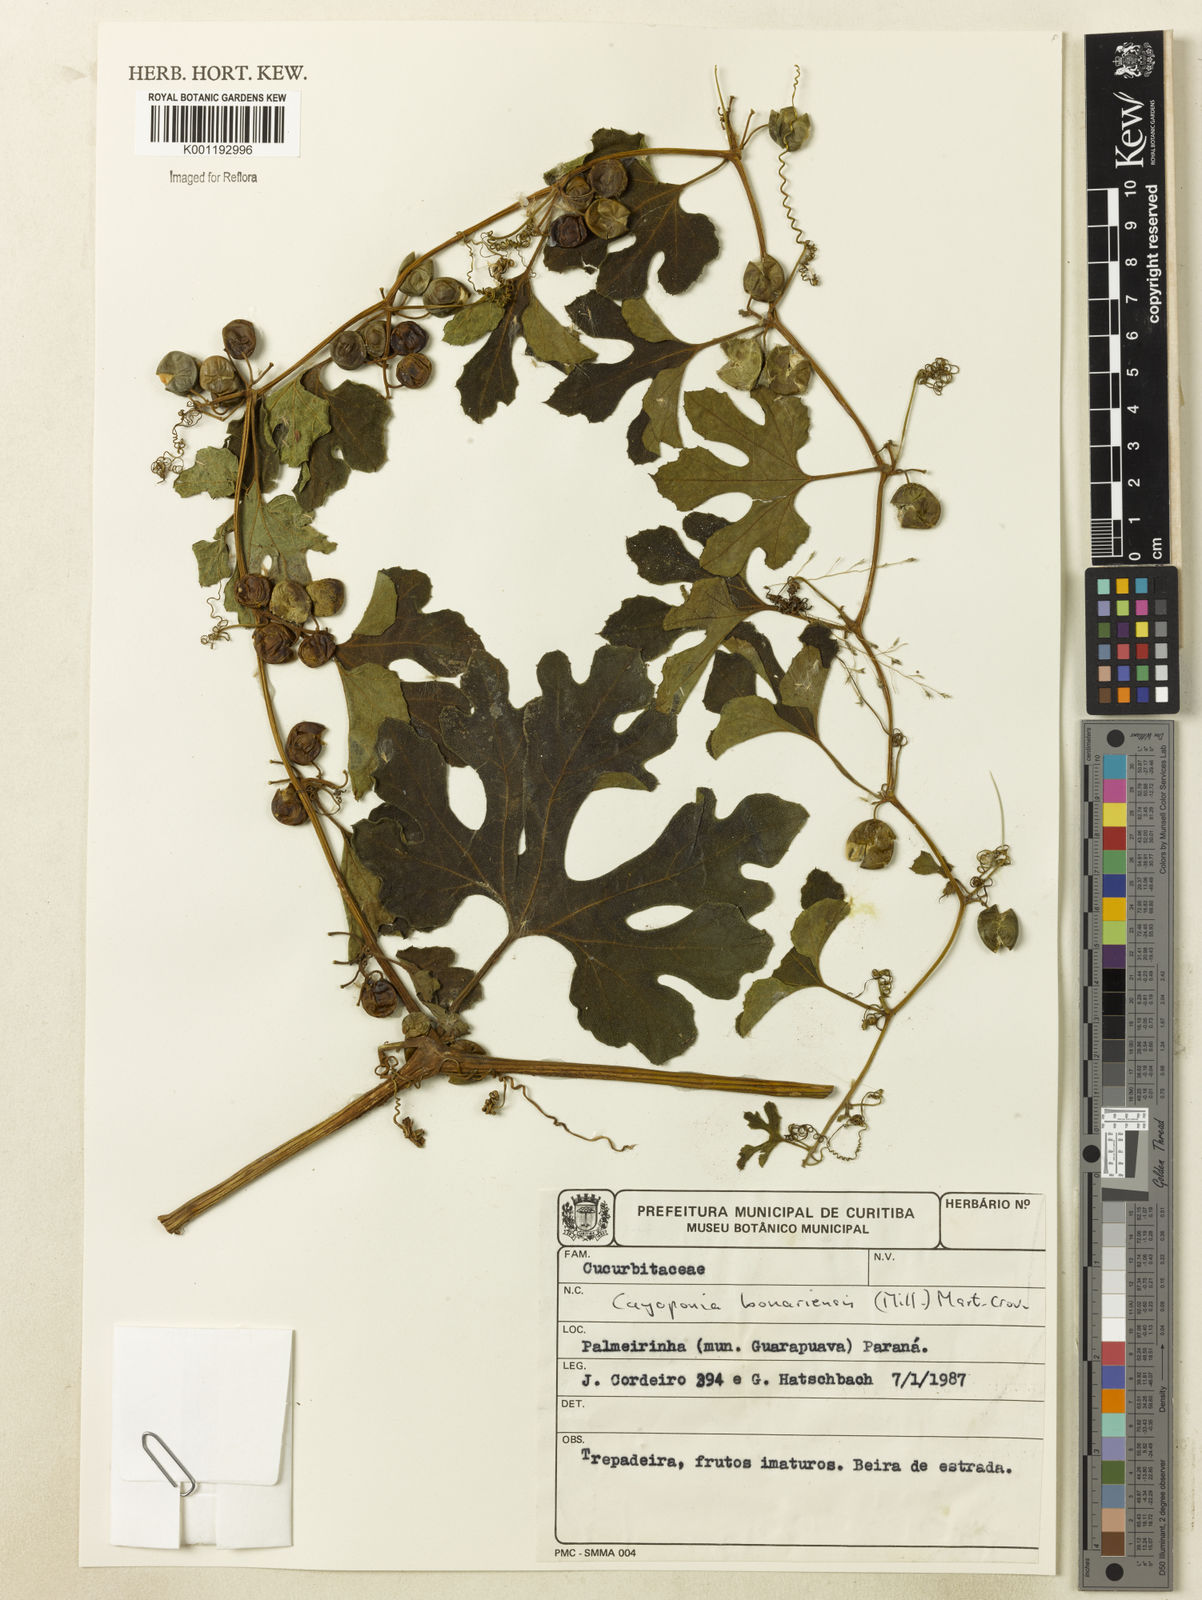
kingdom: Plantae
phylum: Tracheophyta
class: Magnoliopsida
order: Cucurbitales
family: Cucurbitaceae
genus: Cayaponia
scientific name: Cayaponia bonariensis
